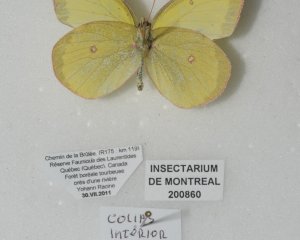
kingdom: Animalia
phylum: Arthropoda
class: Insecta
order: Lepidoptera
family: Pieridae
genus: Colias
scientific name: Colias interior
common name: Pink-edged Sulphur
